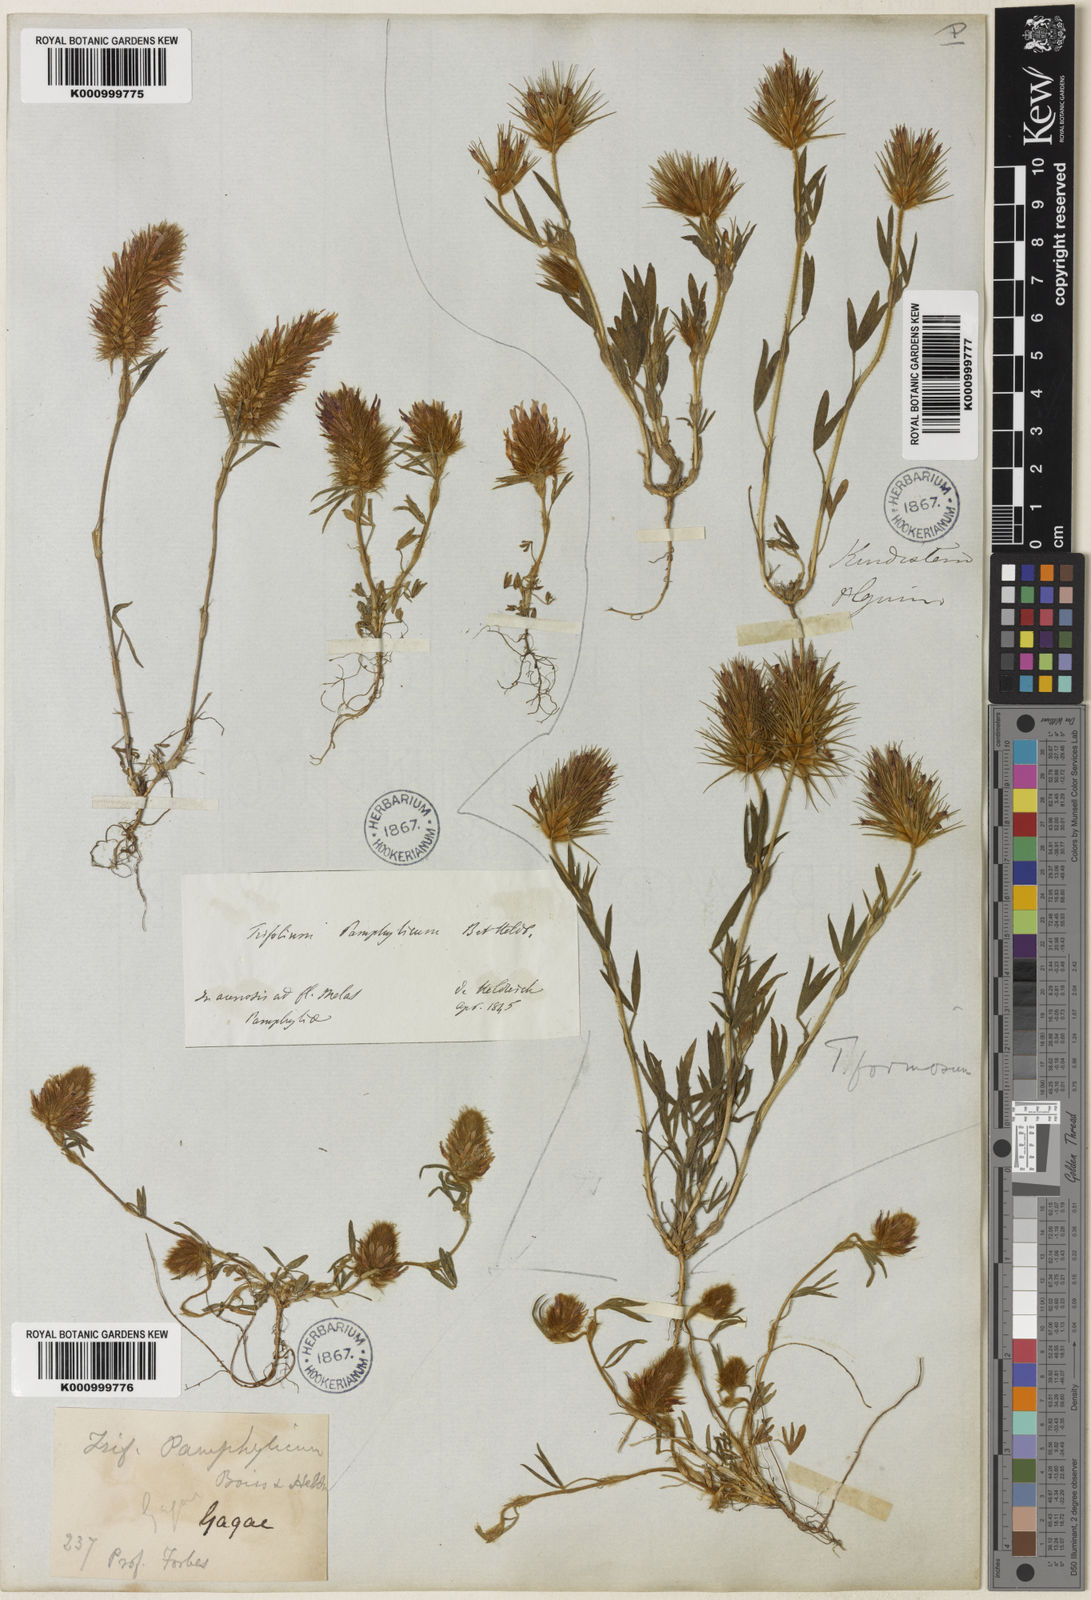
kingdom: Plantae
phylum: Tracheophyta
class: Magnoliopsida
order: Fabales
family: Fabaceae
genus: Trifolium
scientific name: Trifolium pamphylicum
